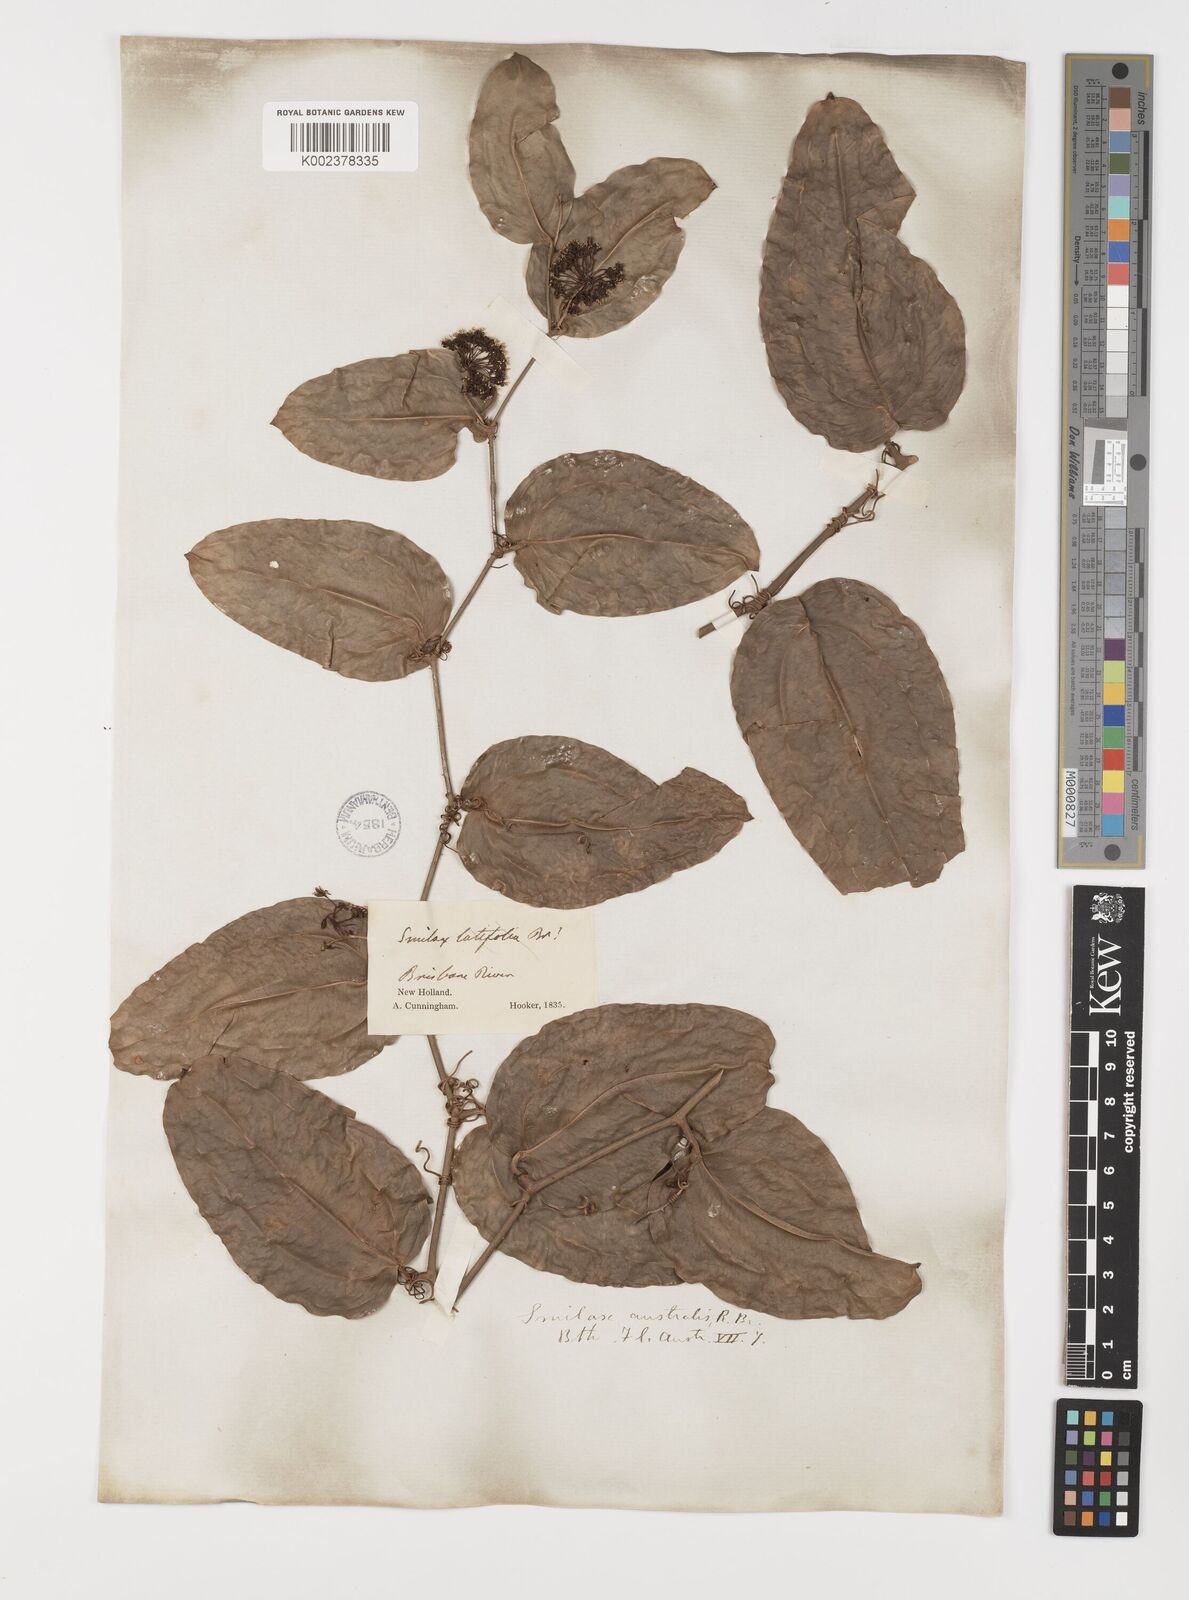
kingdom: Plantae
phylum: Tracheophyta
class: Liliopsida
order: Liliales
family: Smilacaceae
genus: Smilax
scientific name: Smilax australis
